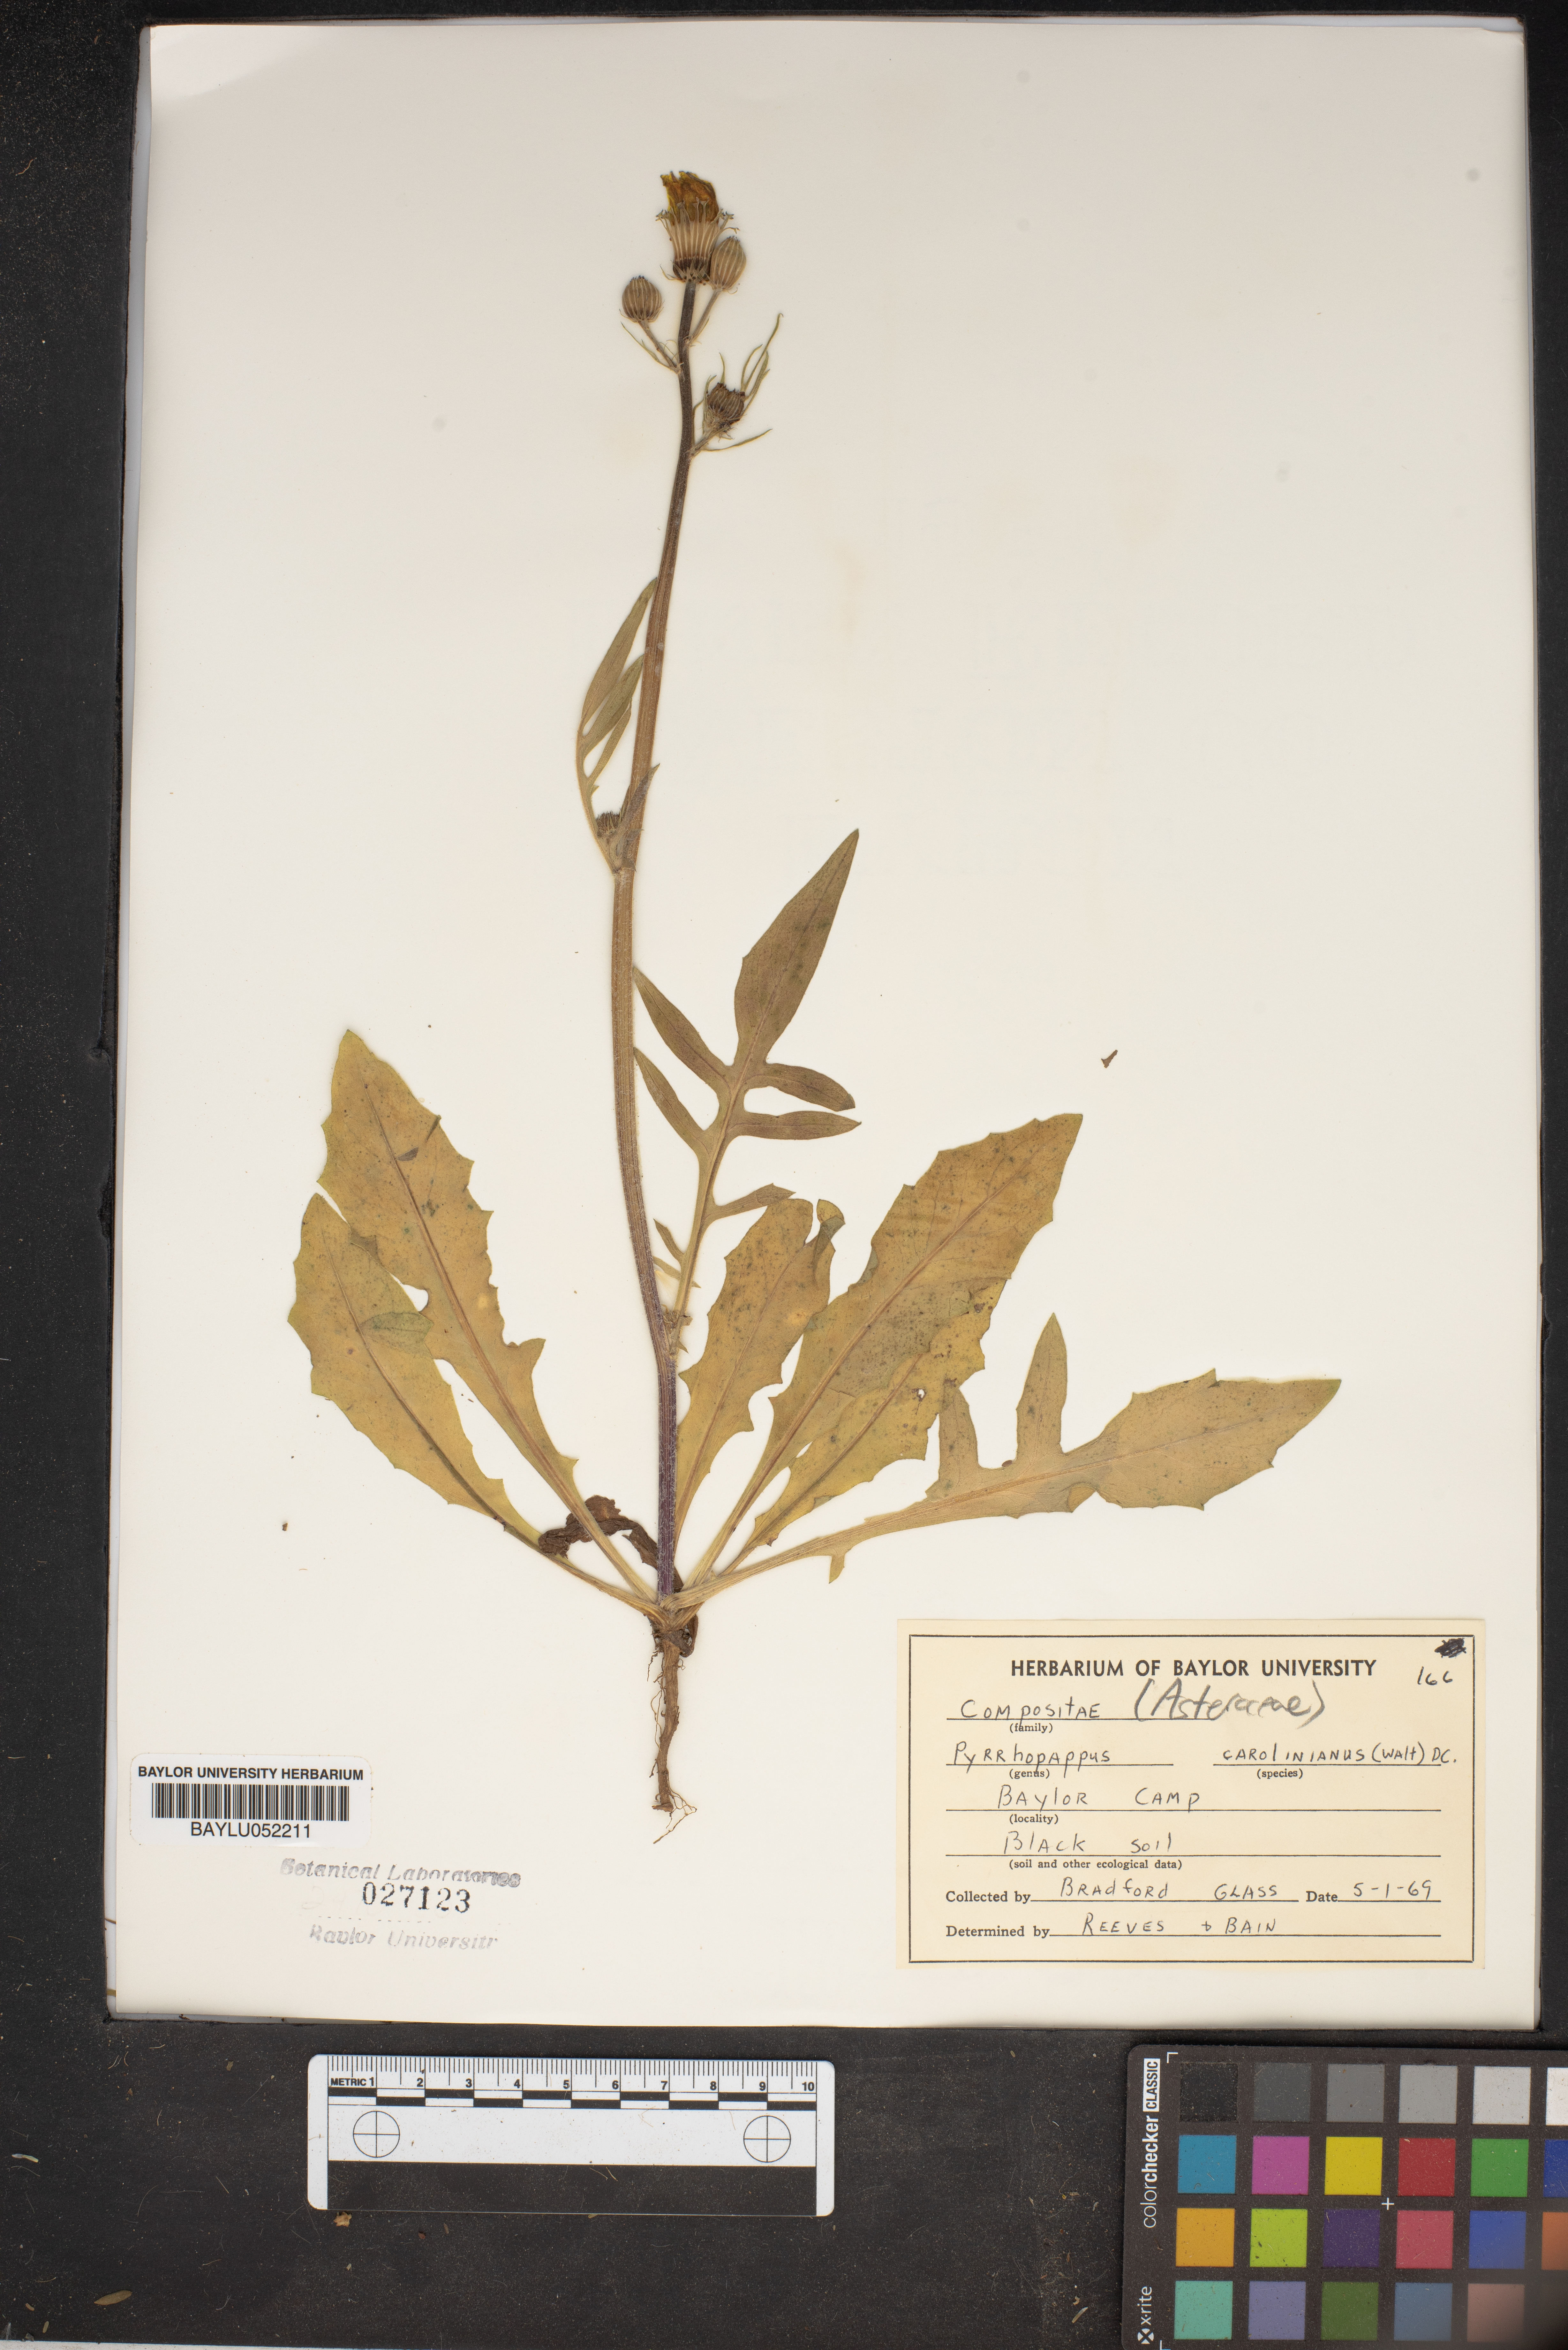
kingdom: Plantae
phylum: Tracheophyta
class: Magnoliopsida
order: Asterales
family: Asteraceae
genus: Pyrrhopappus
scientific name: Pyrrhopappus carolinianus
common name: Carolina desert-chicory
